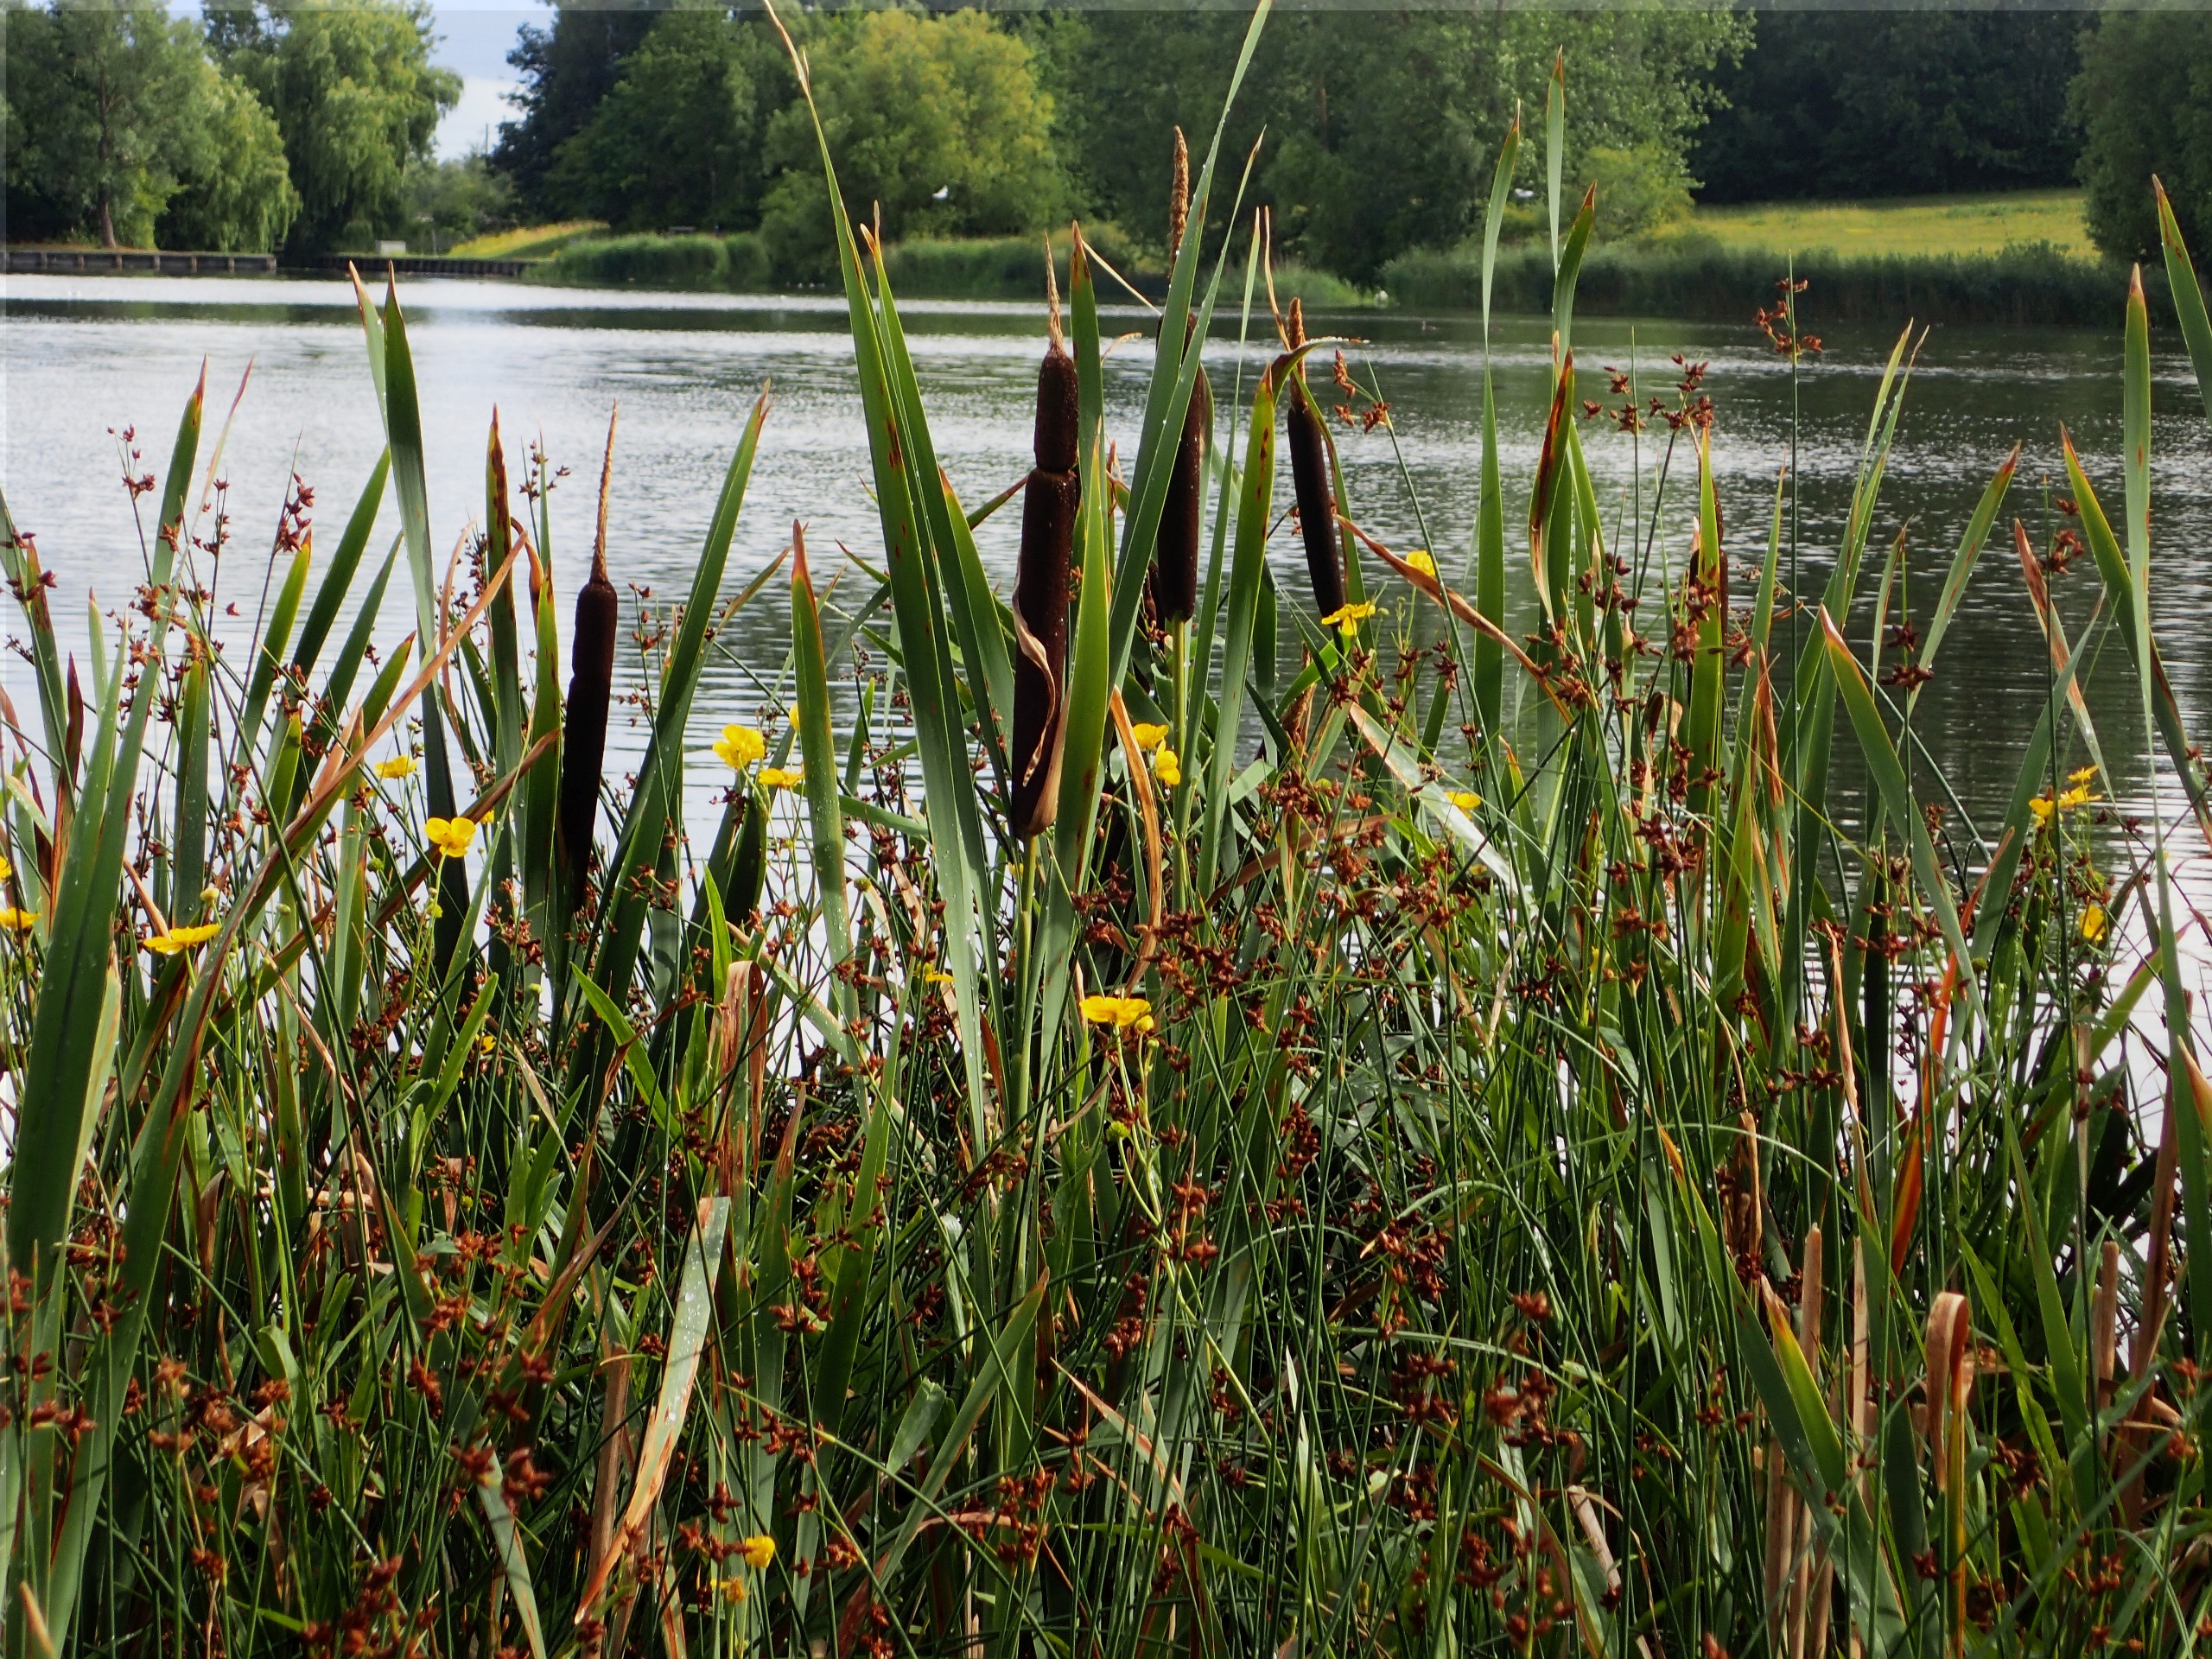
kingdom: Plantae
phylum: Tracheophyta
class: Magnoliopsida
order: Ranunculales
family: Ranunculaceae
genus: Ranunculus
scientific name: Ranunculus lingua
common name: Langbladet ranunkel
